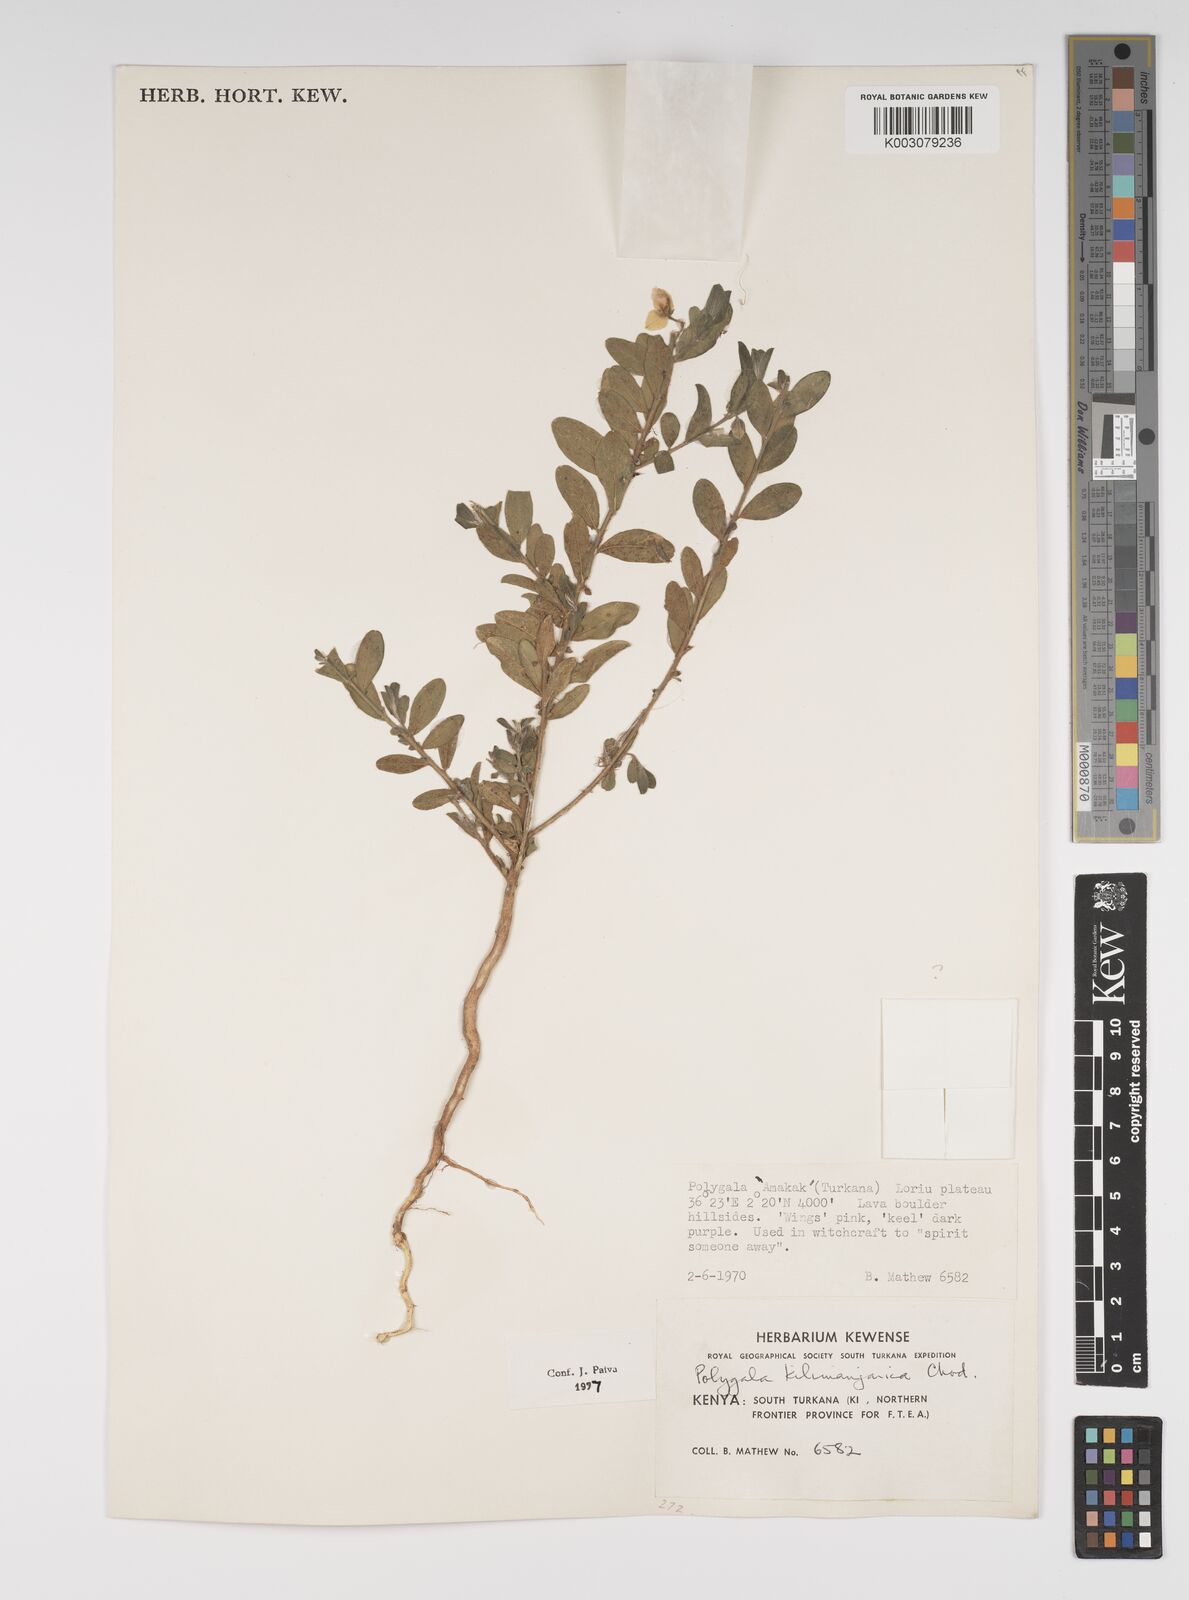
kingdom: Plantae
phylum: Tracheophyta
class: Magnoliopsida
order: Fabales
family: Polygalaceae
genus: Polygala
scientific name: Polygala kilimandjarica
